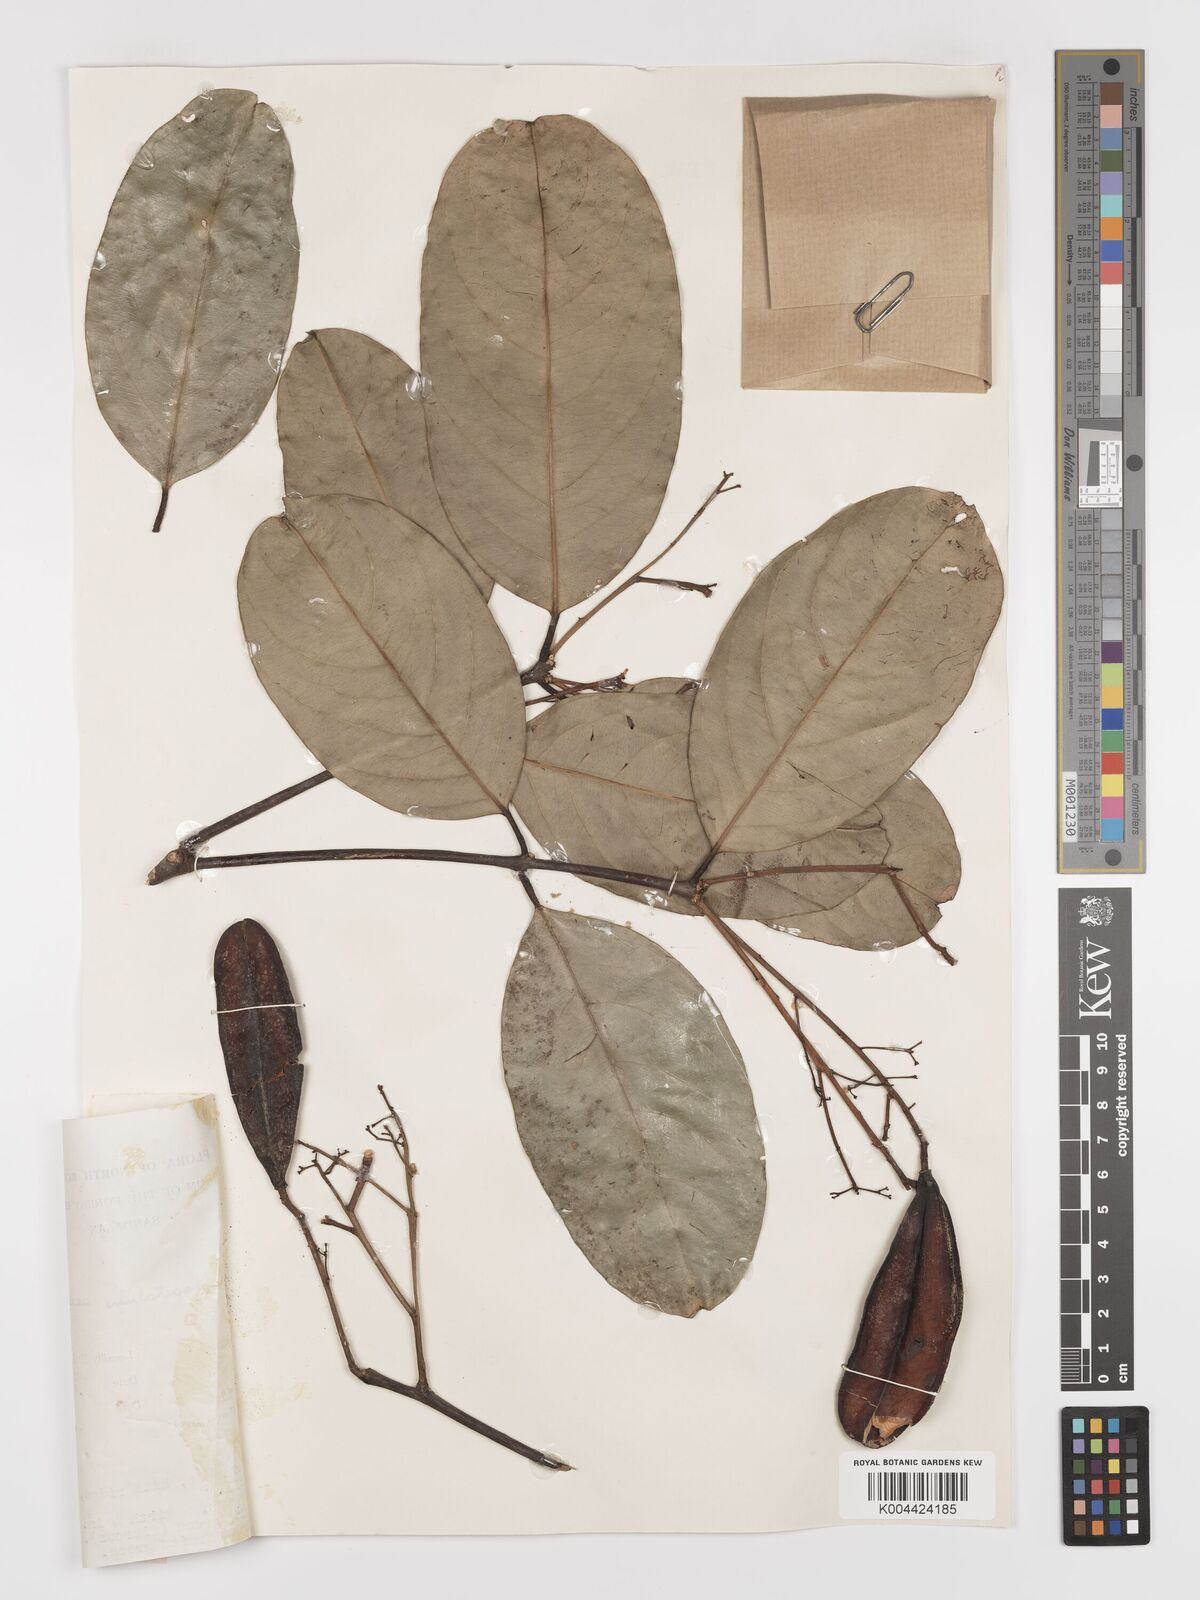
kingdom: Plantae
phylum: Tracheophyta
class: Magnoliopsida
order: Celastrales
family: Celastraceae
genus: Lophopetalum
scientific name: Lophopetalum beccarianum
